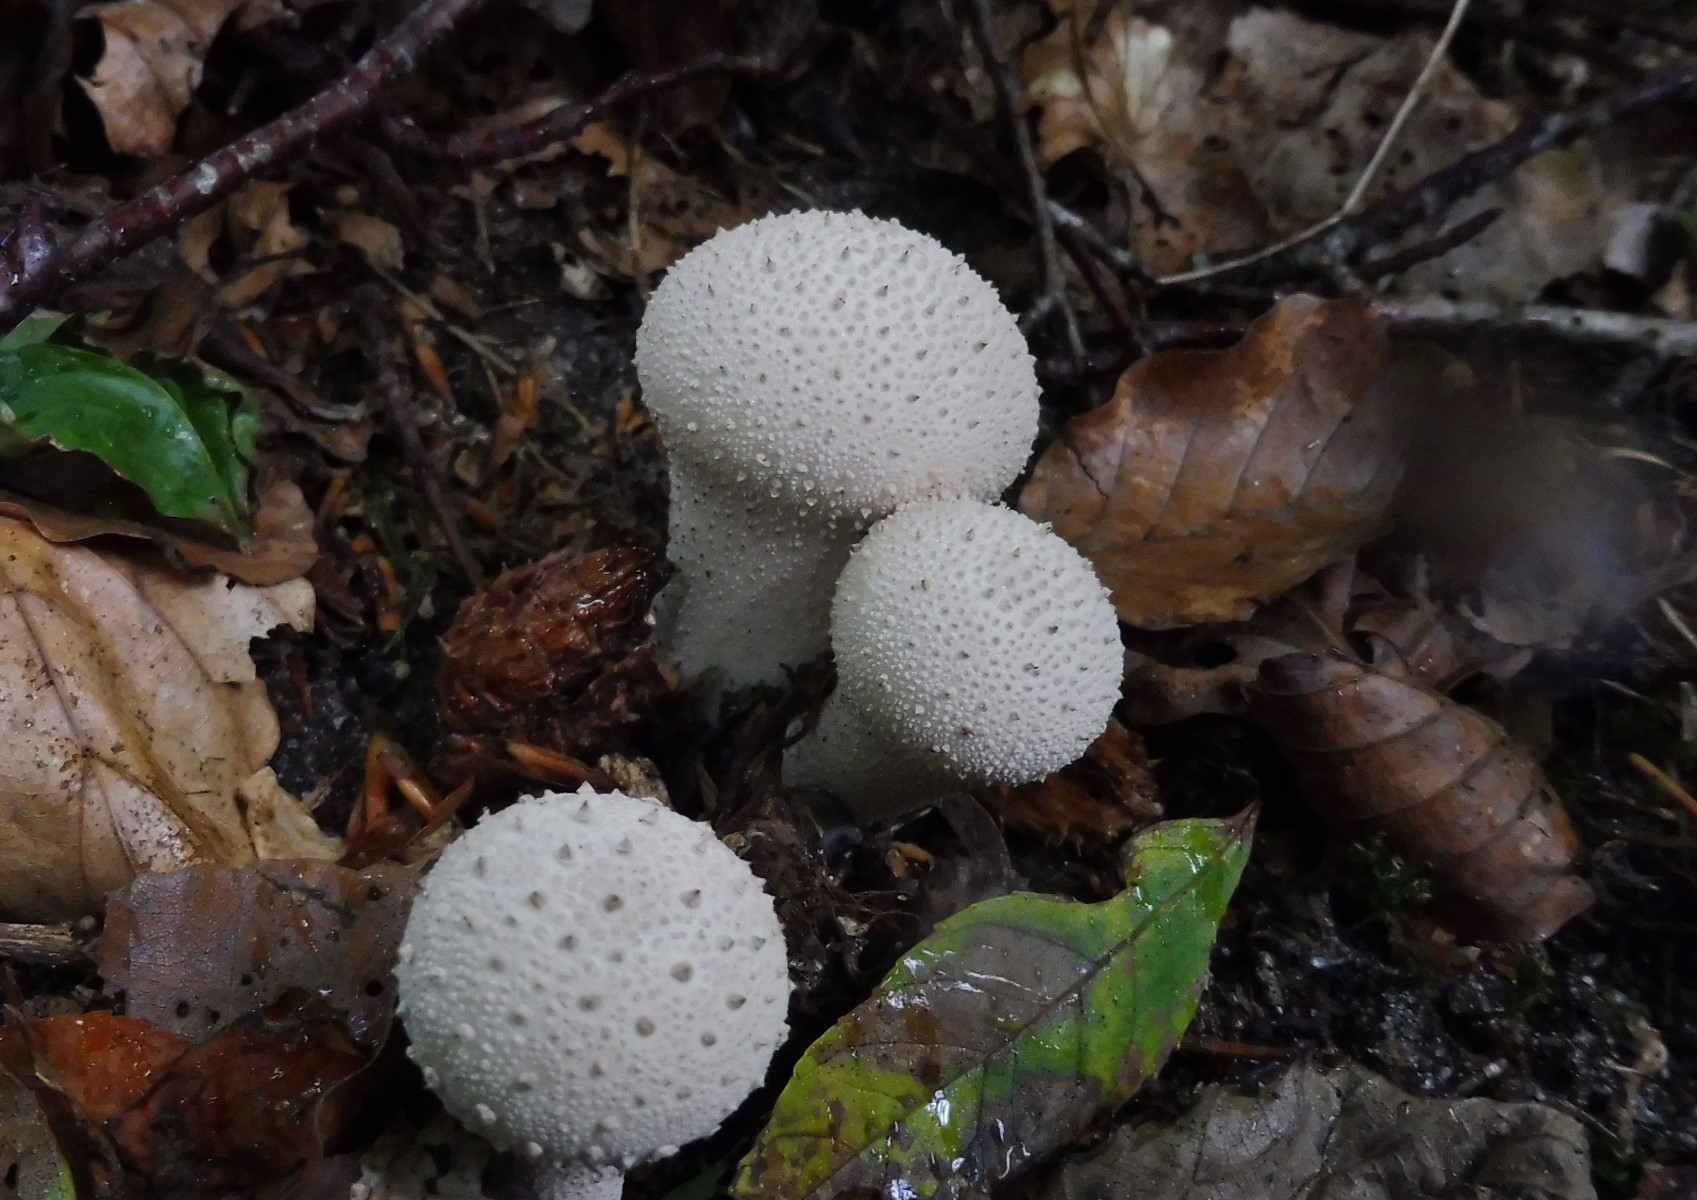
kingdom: Fungi
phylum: Basidiomycota
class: Agaricomycetes
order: Agaricales
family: Lycoperdaceae
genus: Lycoperdon
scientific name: Lycoperdon perlatum
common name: krystal-støvbold
